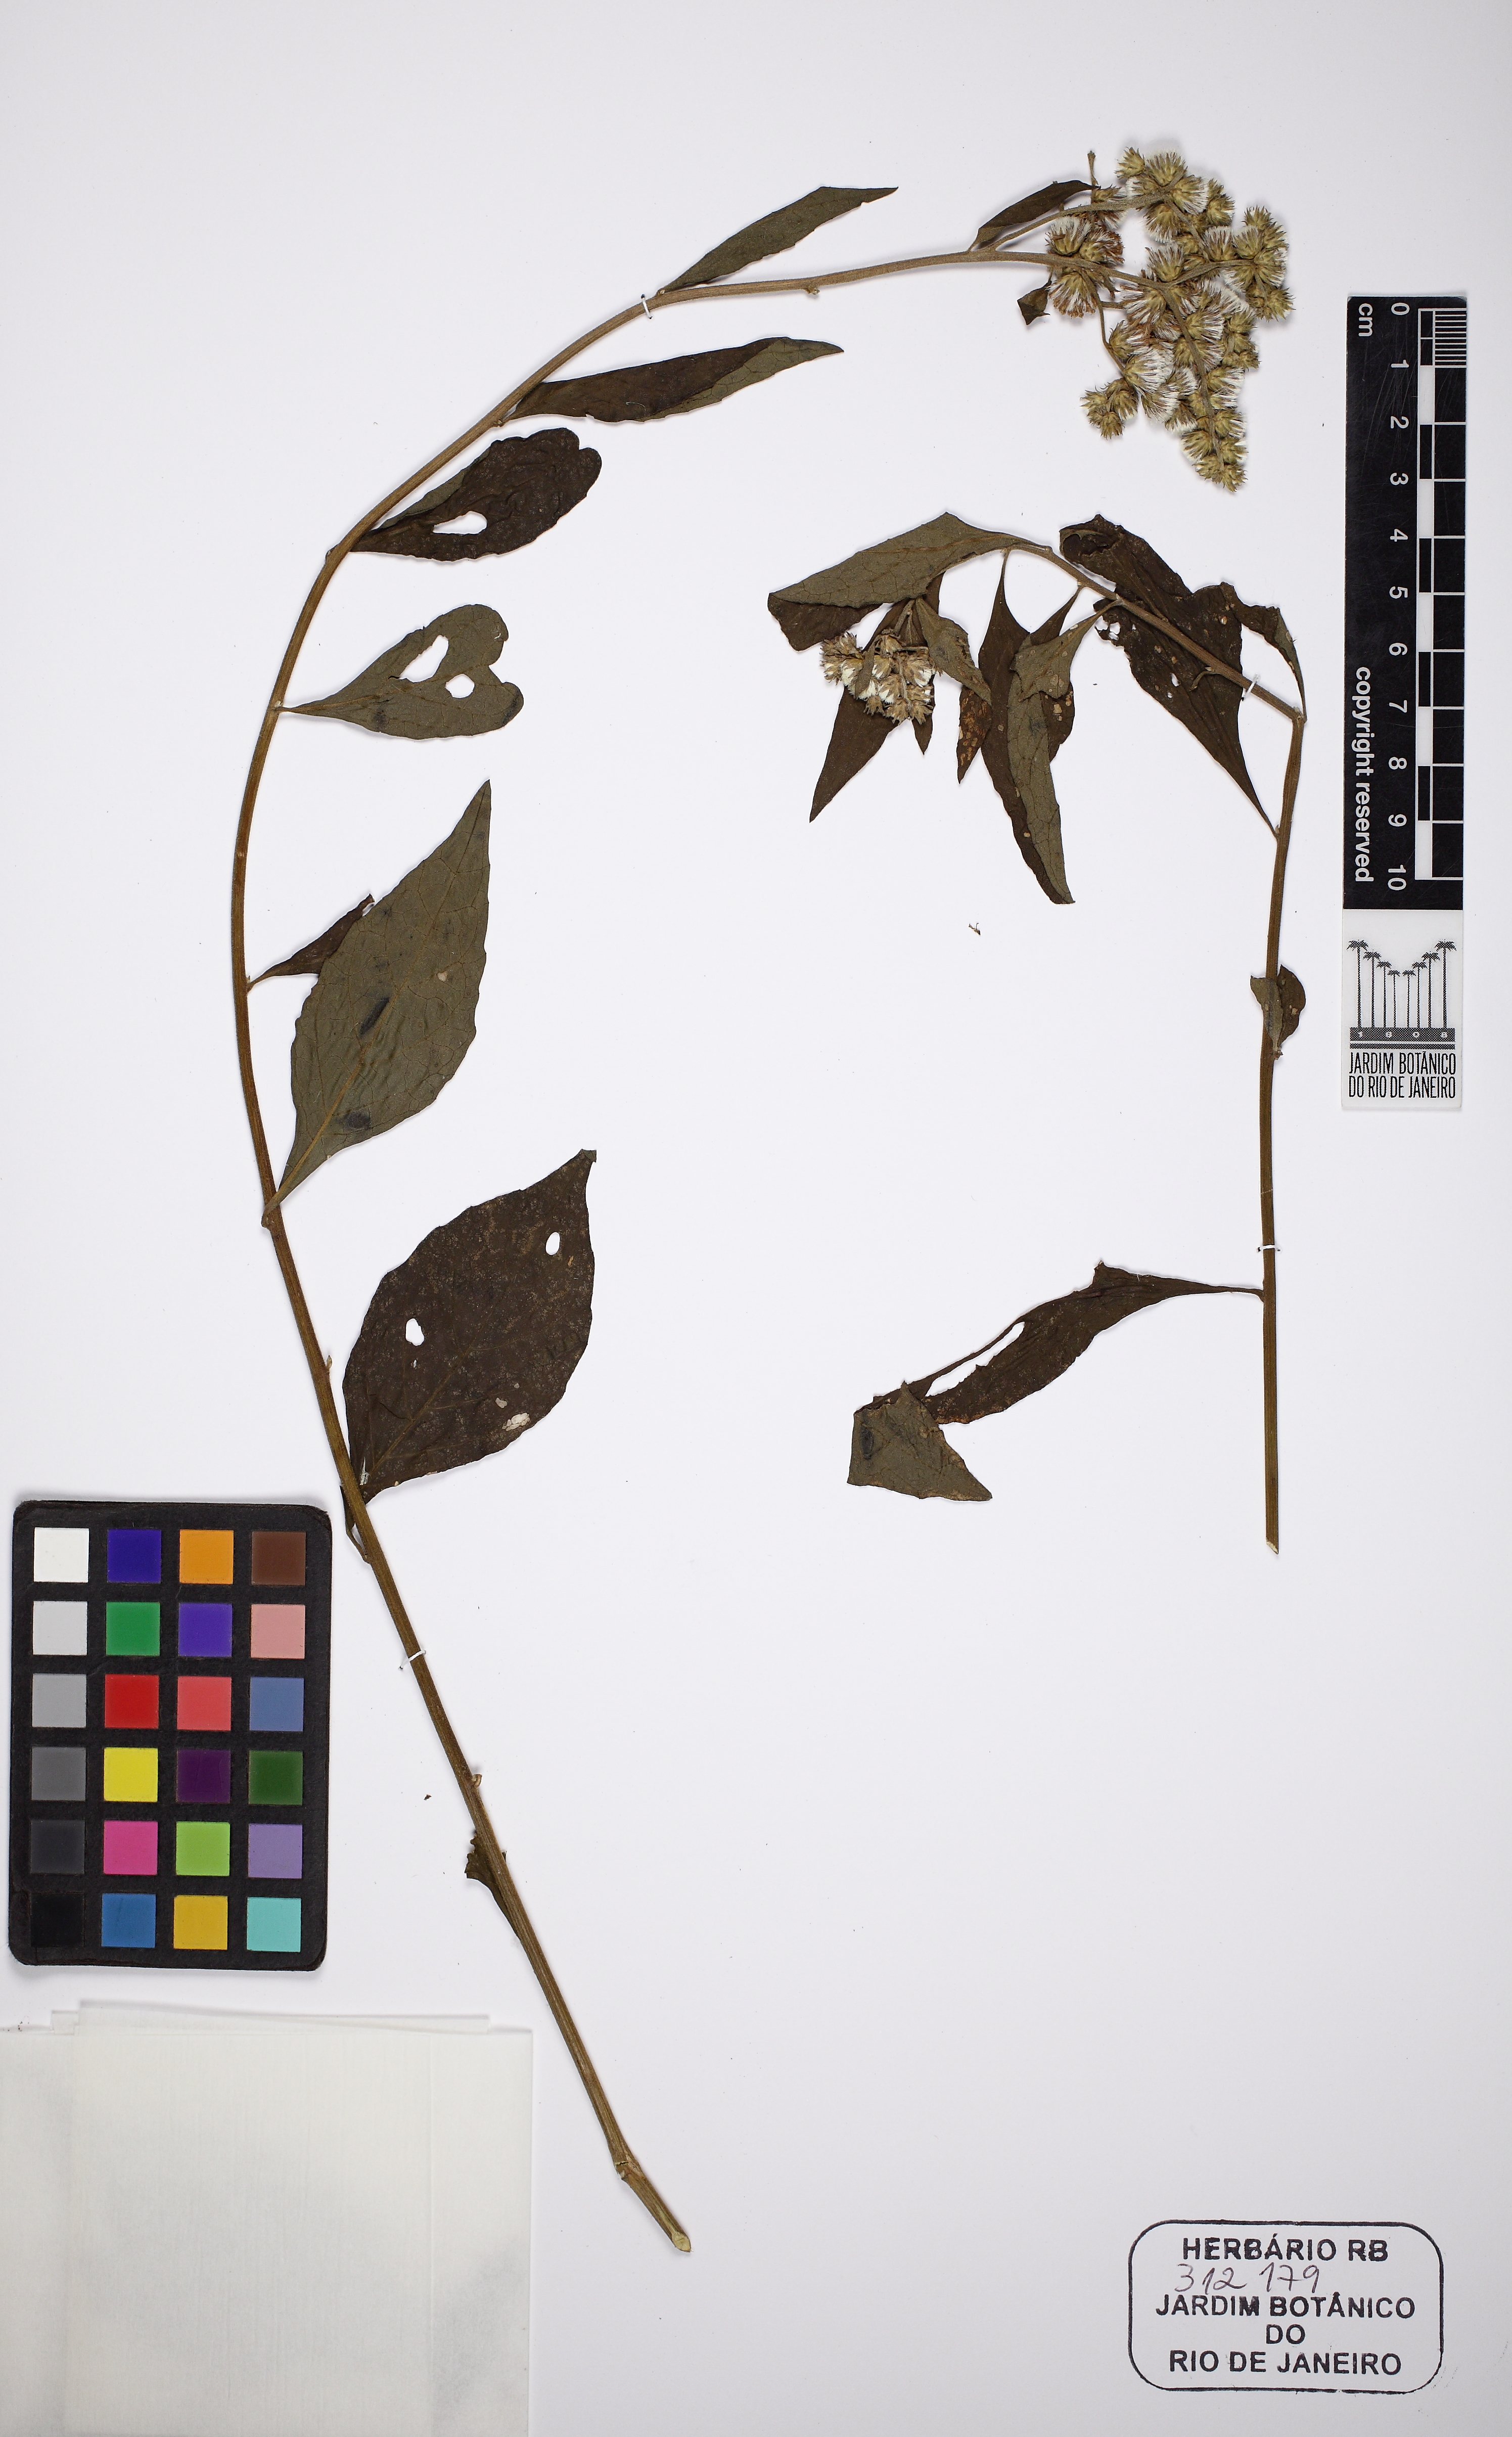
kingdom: Plantae
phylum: Tracheophyta
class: Magnoliopsida
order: Asterales
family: Asteraceae
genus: Cyrtocymura
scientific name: Cyrtocymura scorpioides
